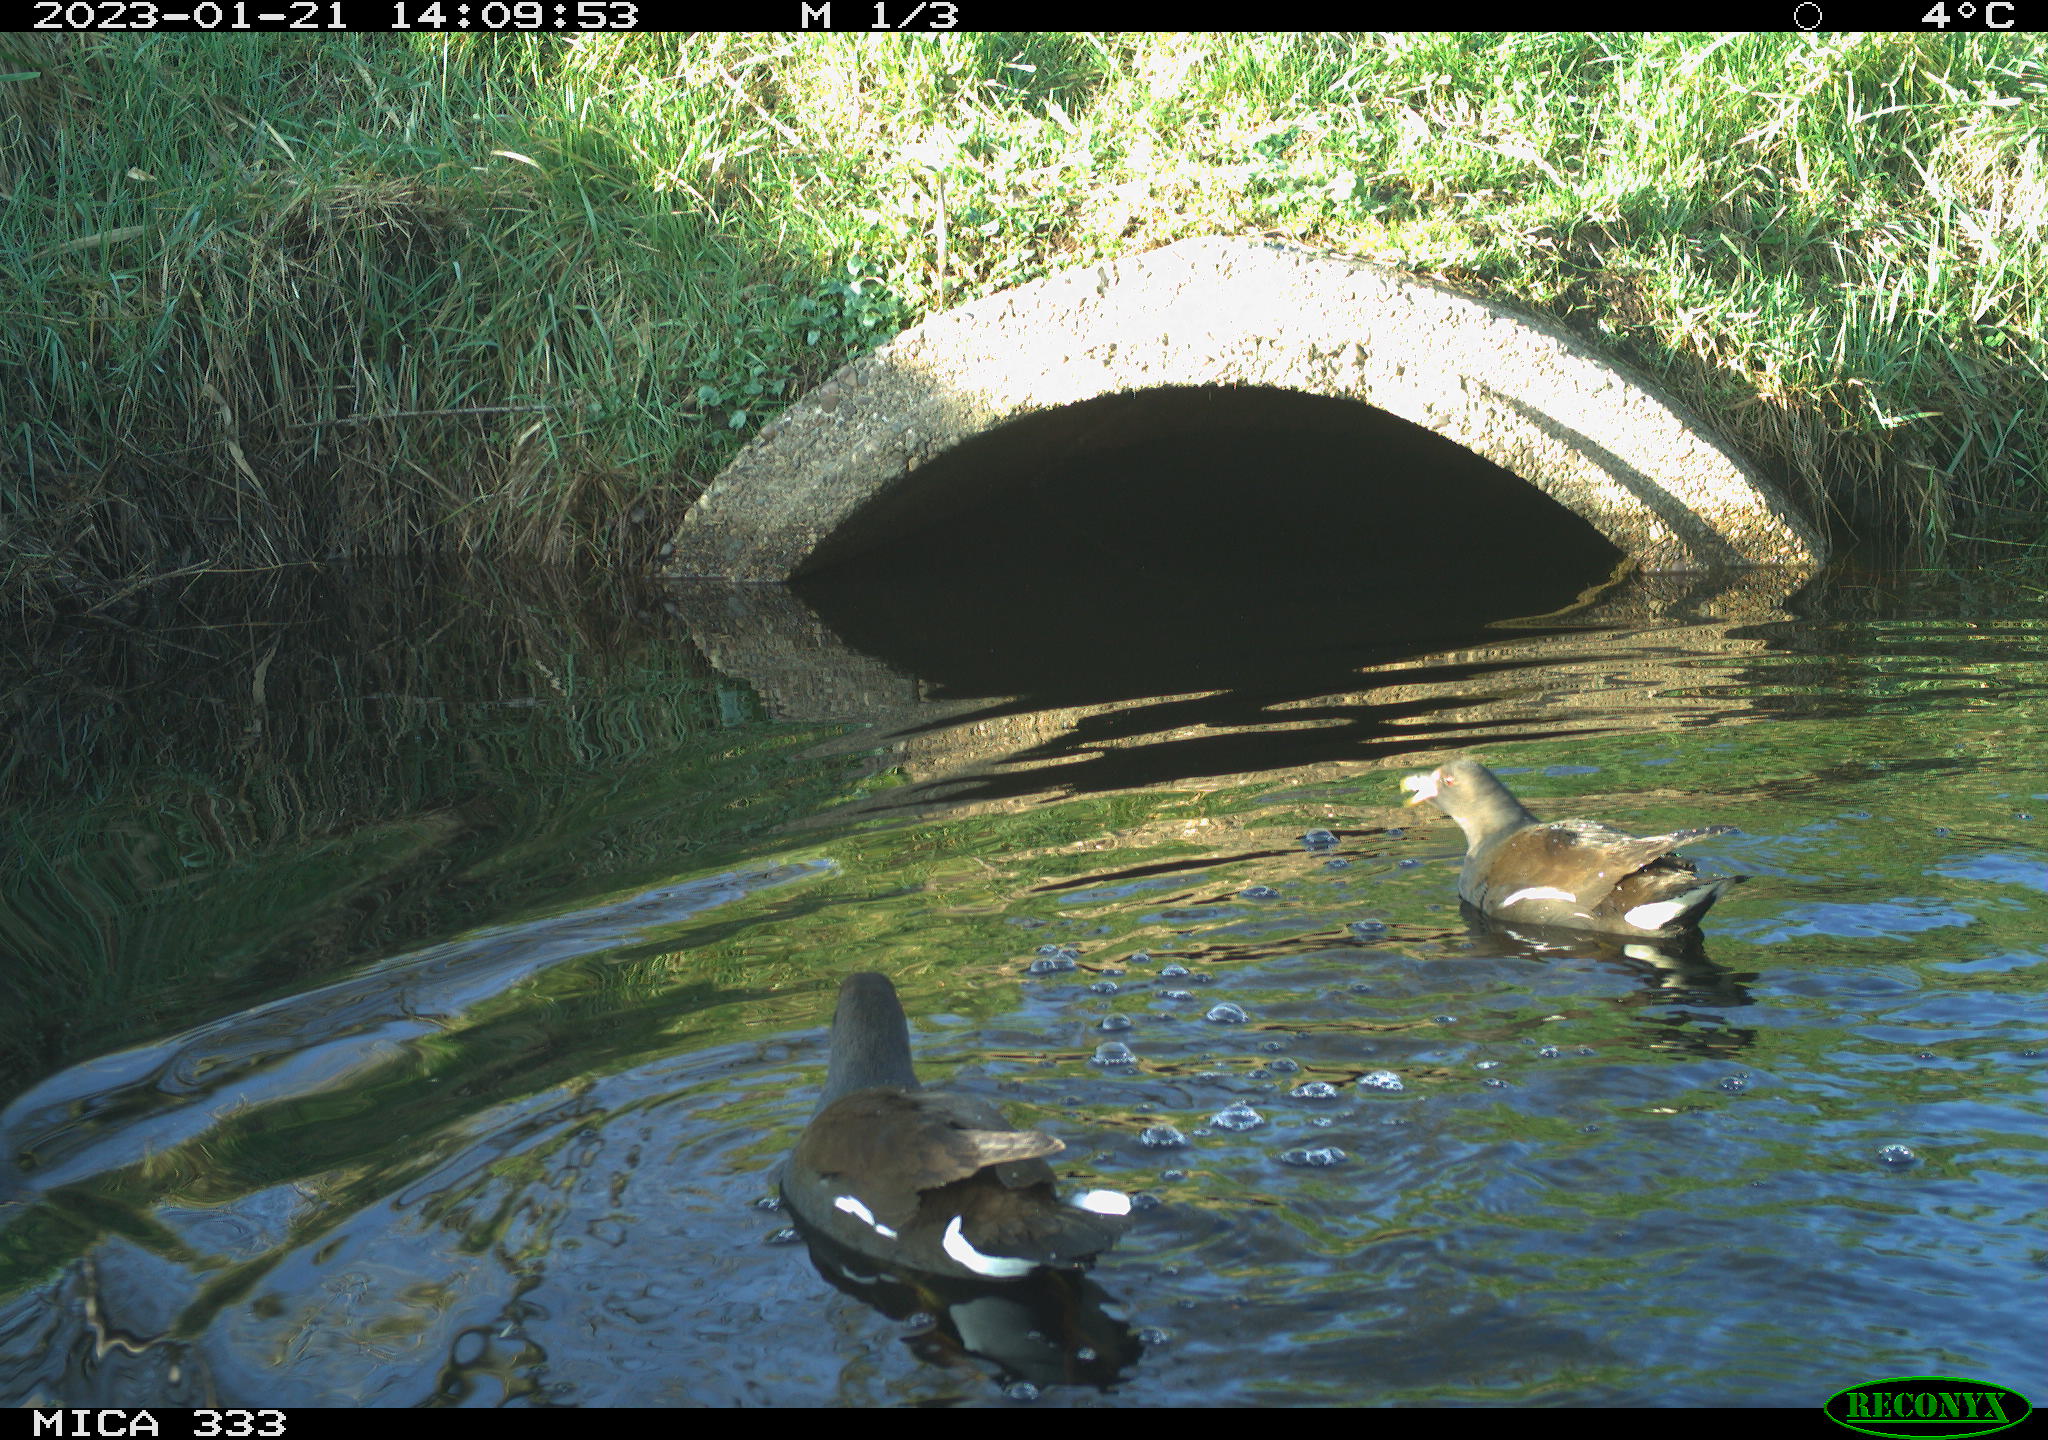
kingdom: Animalia
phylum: Chordata
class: Aves
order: Gruiformes
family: Rallidae
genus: Gallinula
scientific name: Gallinula chloropus
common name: Common moorhen
